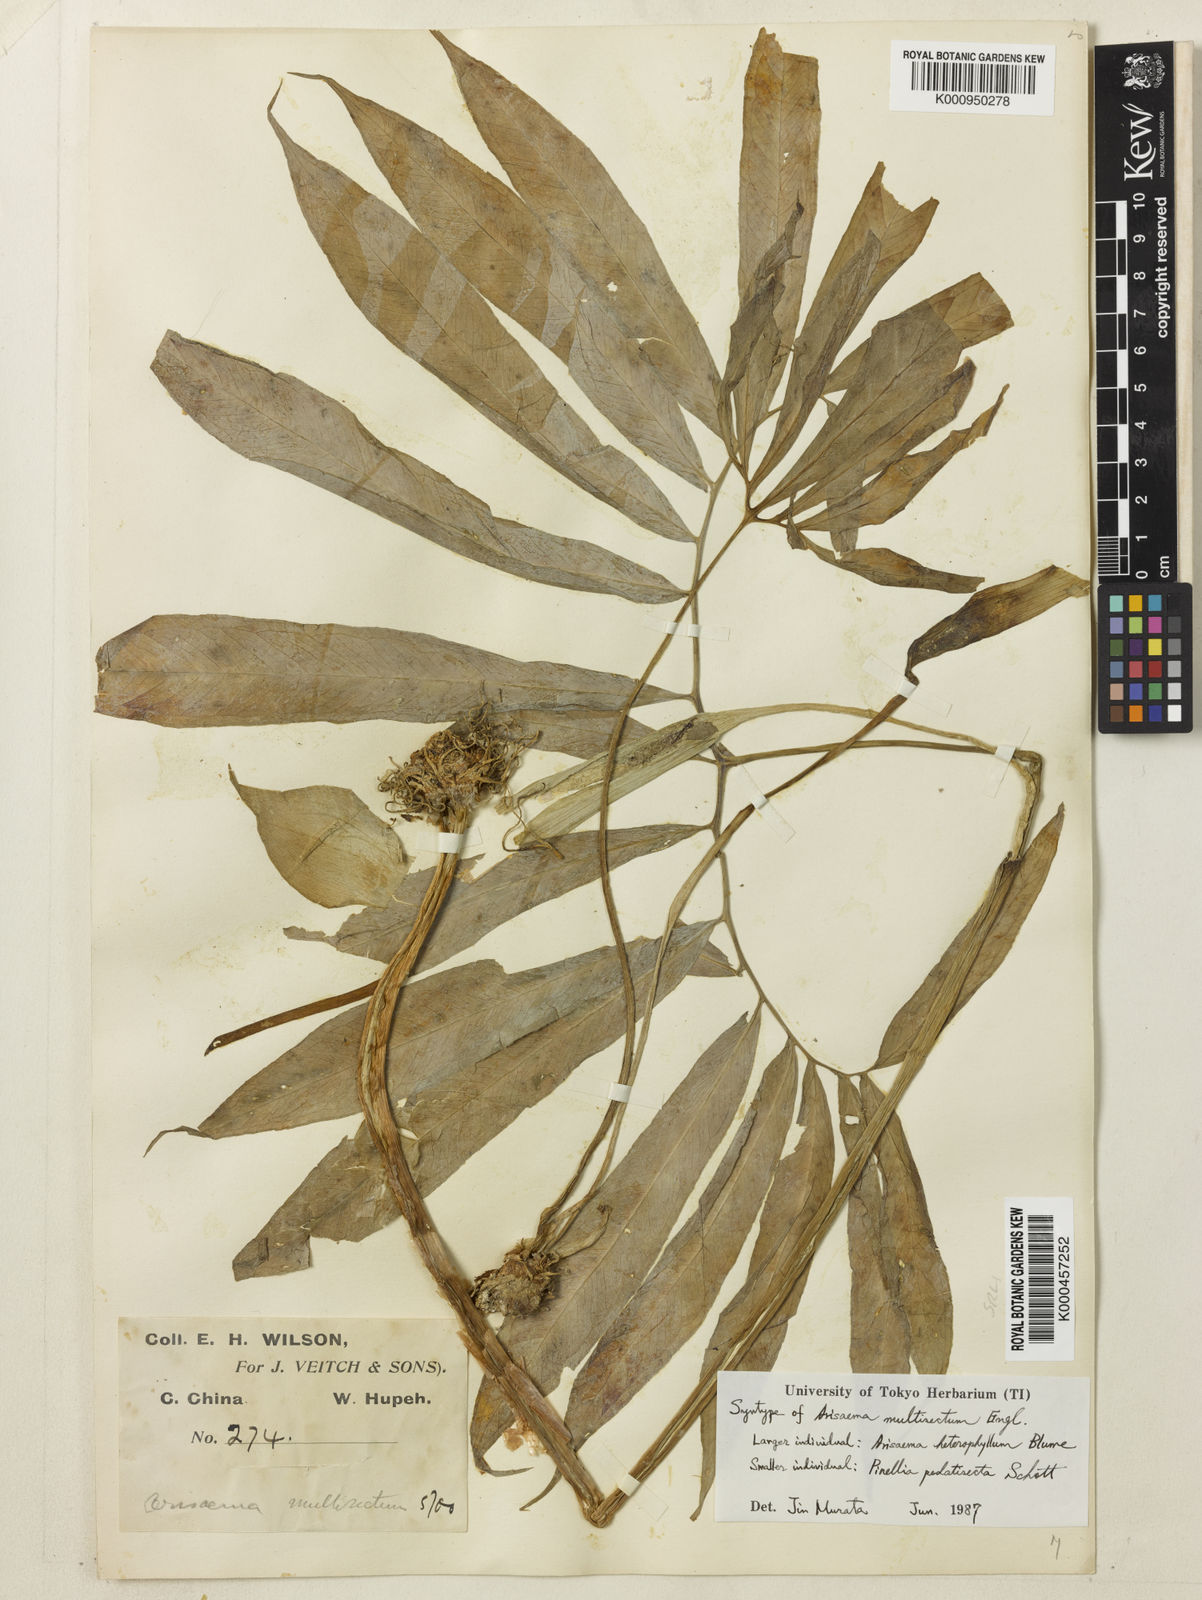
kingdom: Plantae
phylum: Tracheophyta
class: Liliopsida
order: Alismatales
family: Araceae
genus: Arisaema
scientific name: Arisaema heterophyllum
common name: Dancing crane cobra lily
